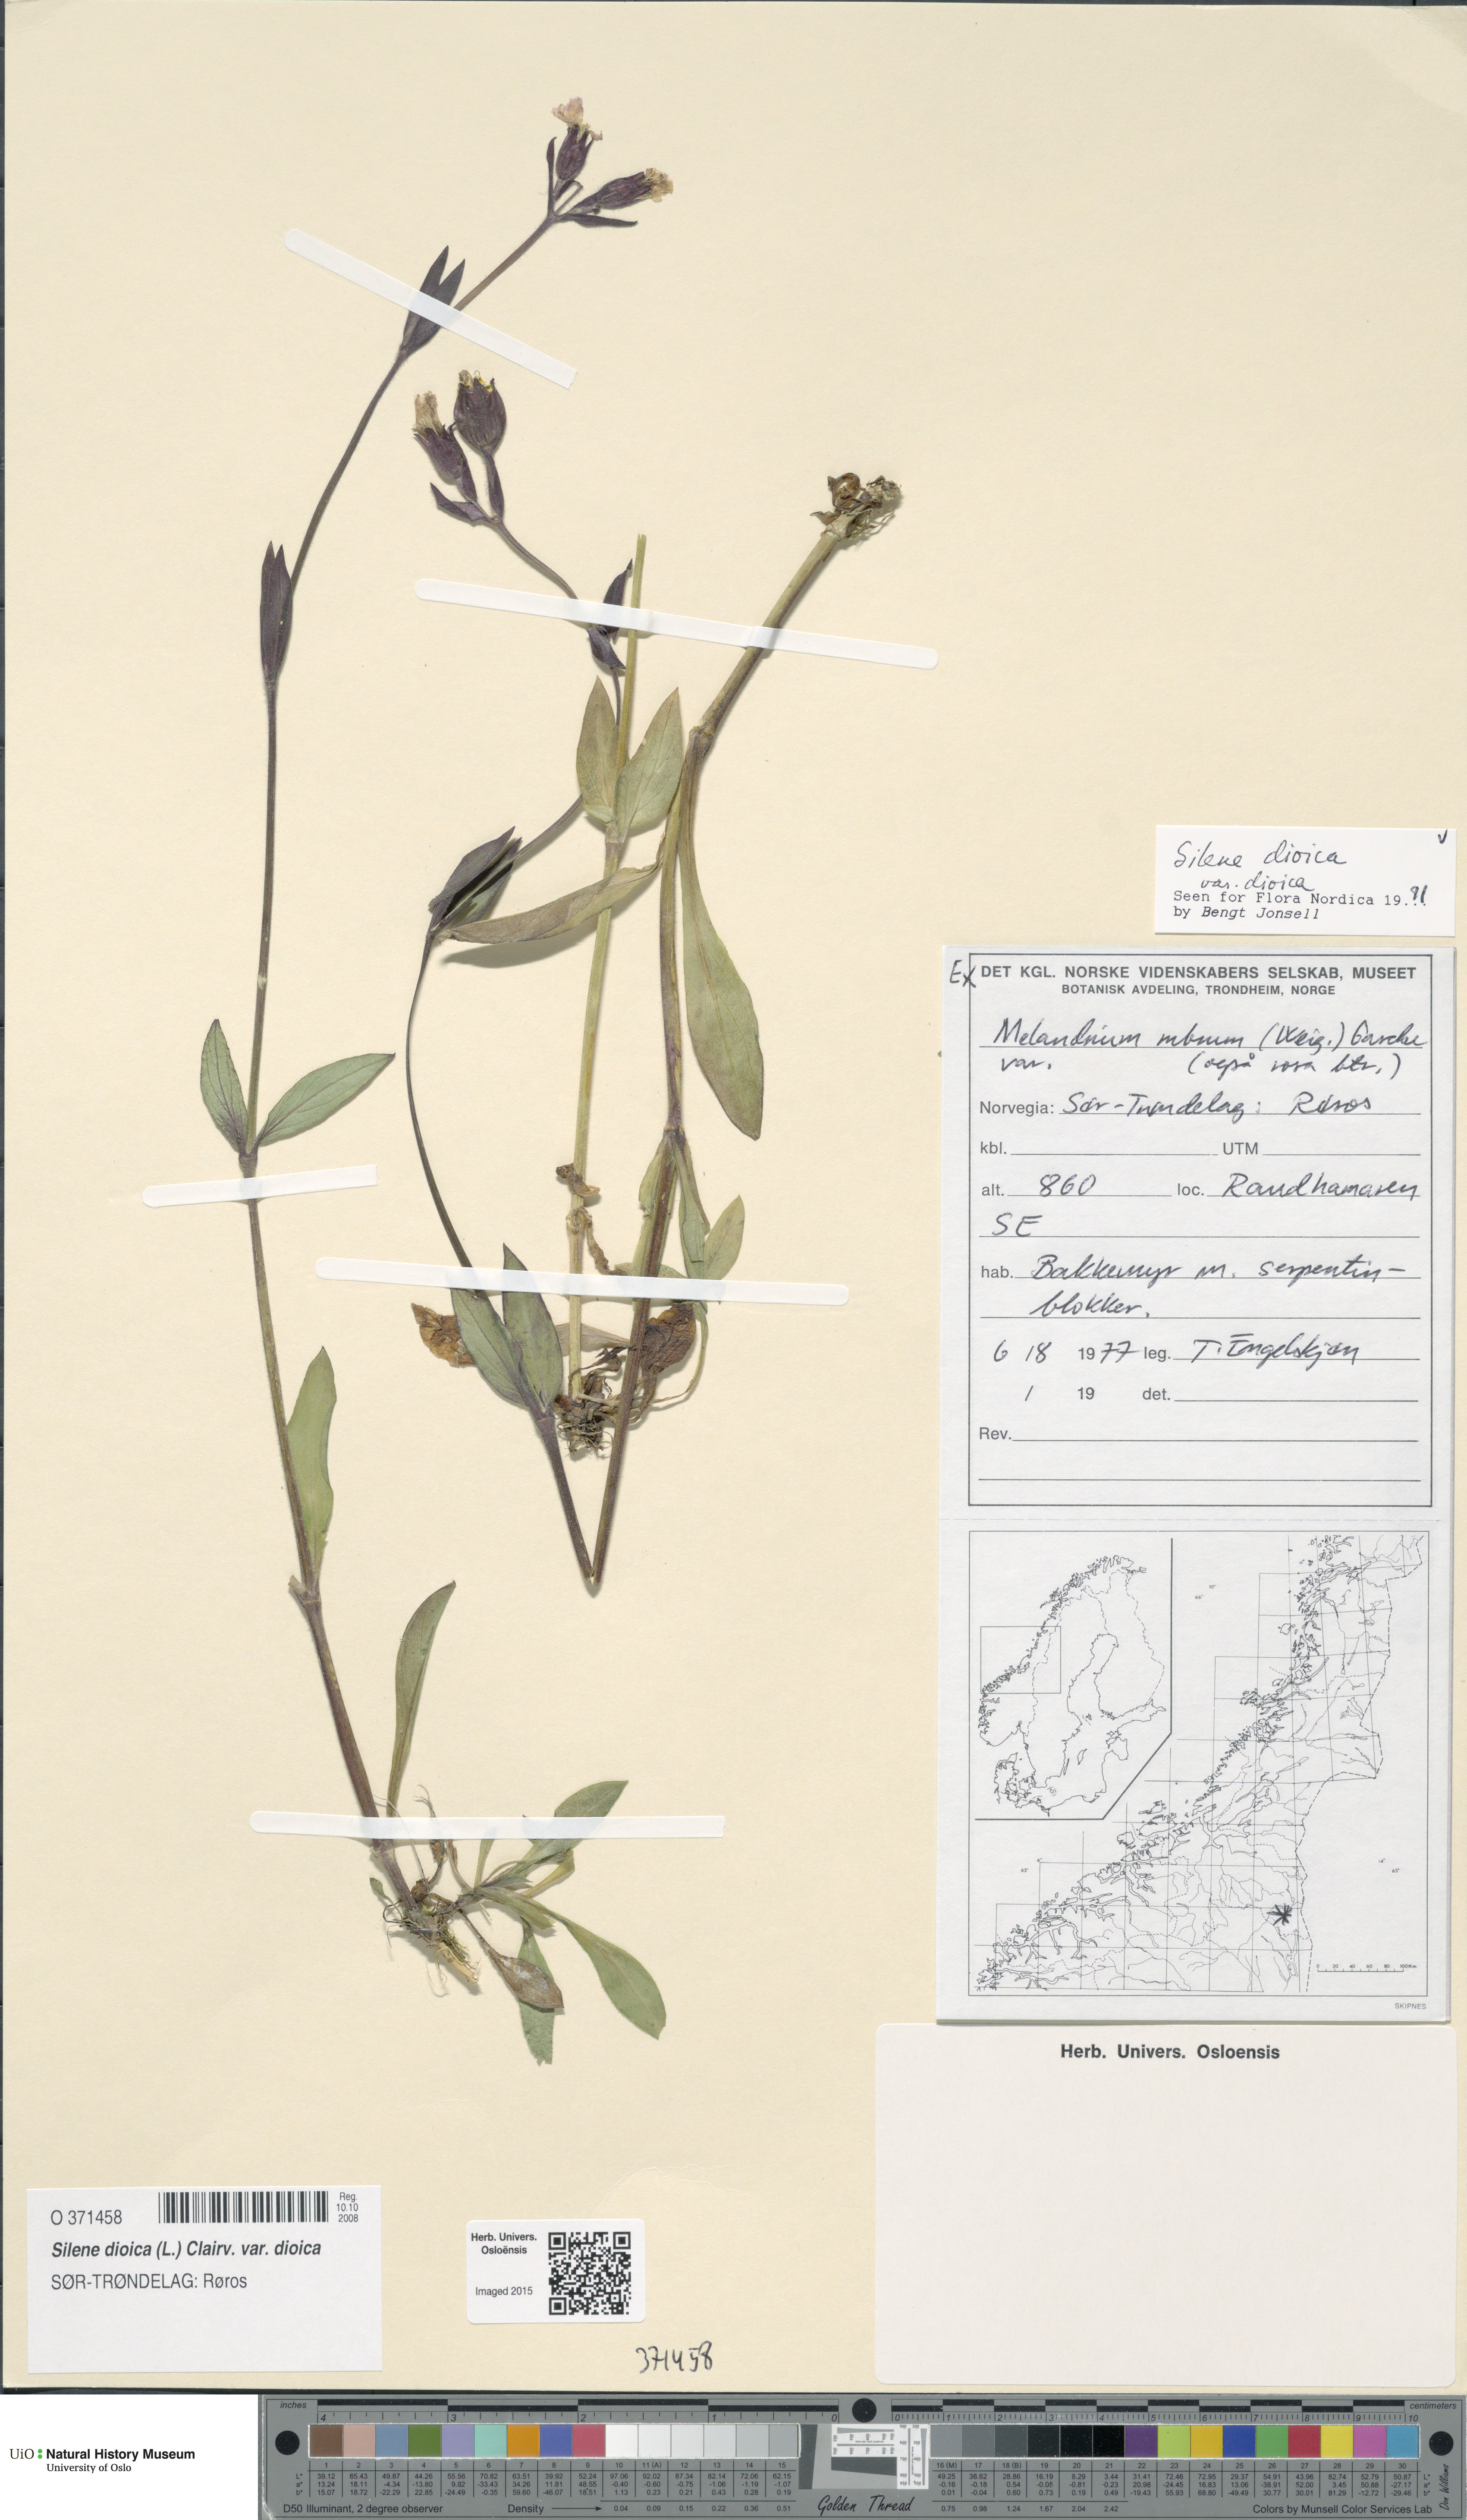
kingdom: Plantae
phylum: Tracheophyta
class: Magnoliopsida
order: Caryophyllales
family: Caryophyllaceae
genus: Silene
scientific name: Silene dioica
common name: Red campion
